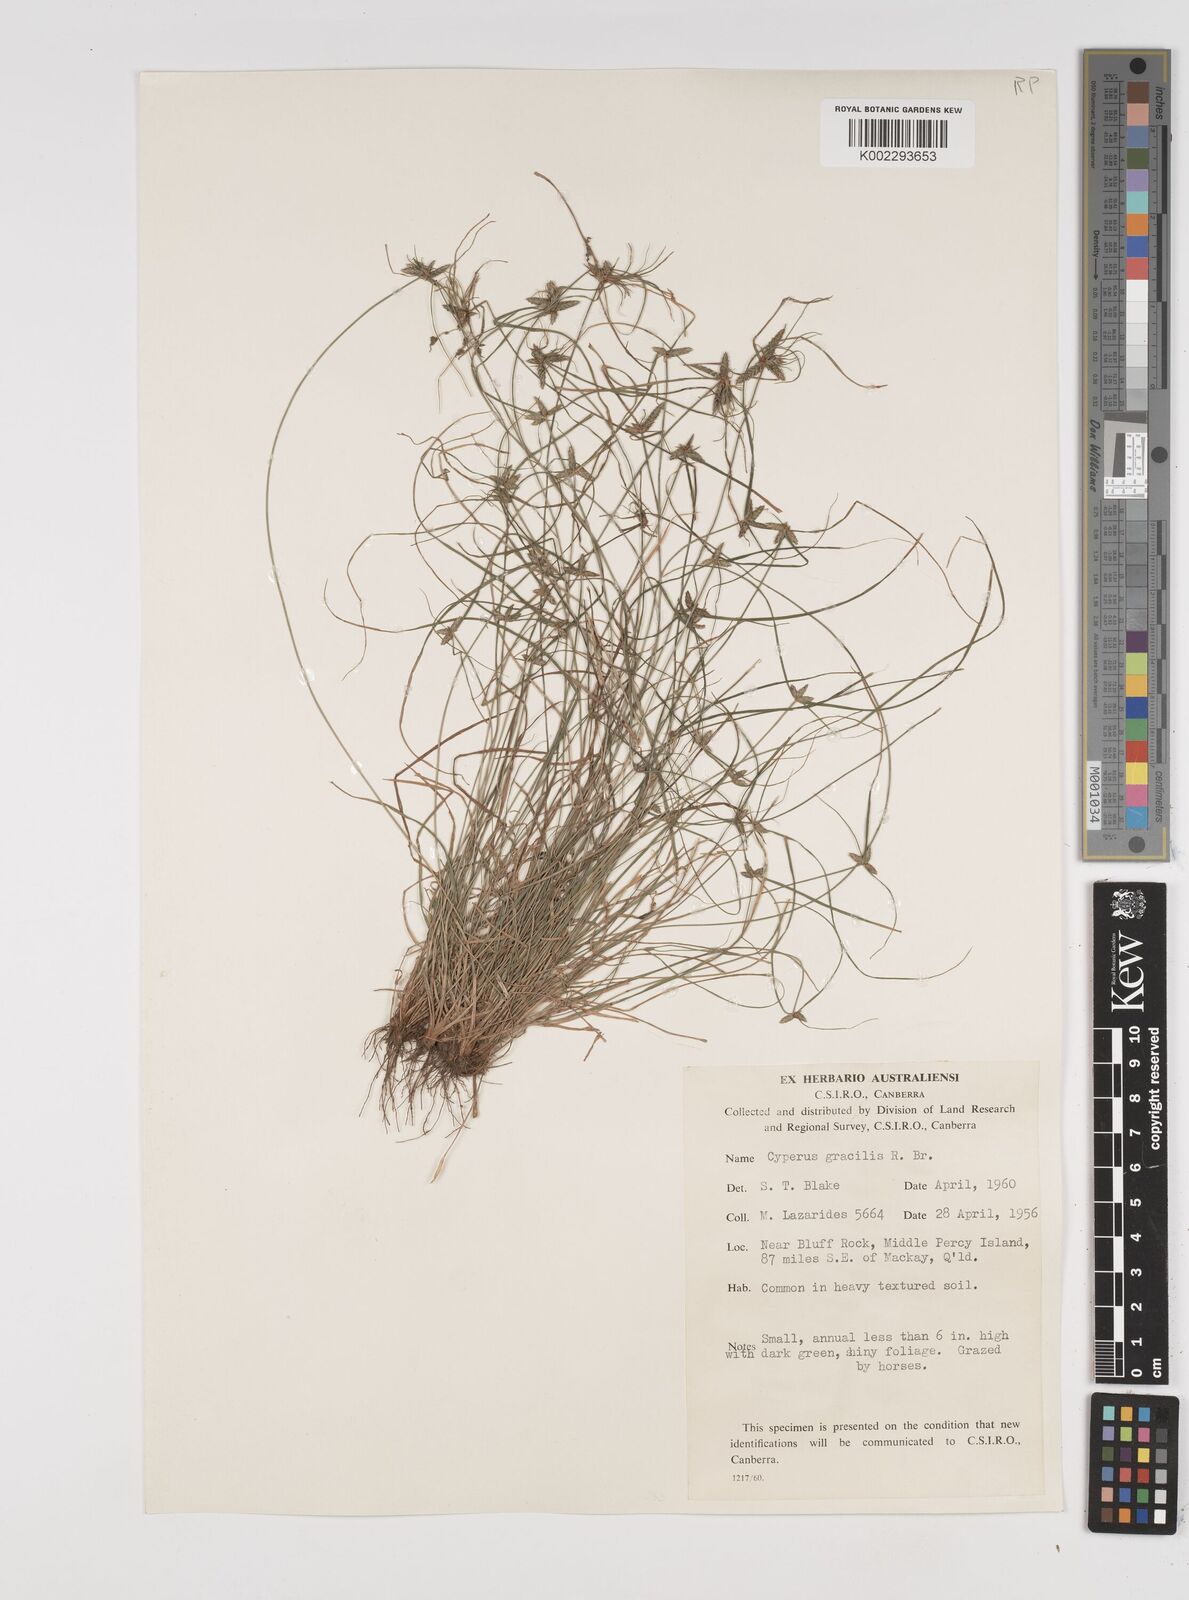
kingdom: Plantae
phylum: Tracheophyta
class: Liliopsida
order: Poales
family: Cyperaceae
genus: Cyperus
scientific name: Cyperus gracilis
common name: Slimjim flatsedge
